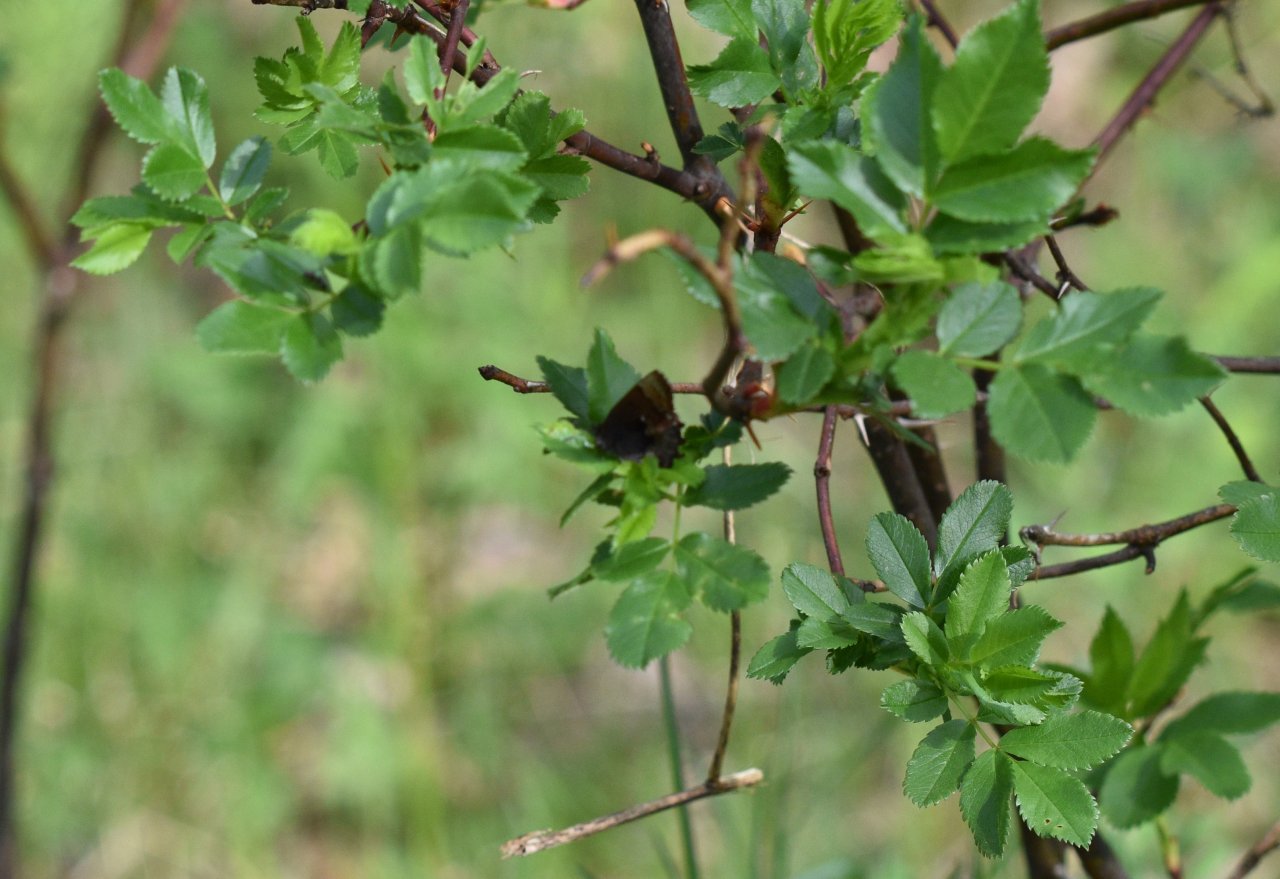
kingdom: Animalia
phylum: Arthropoda
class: Insecta
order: Lepidoptera
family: Lycaenidae
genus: Incisalia
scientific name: Incisalia henrici
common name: Henry's Elfin
